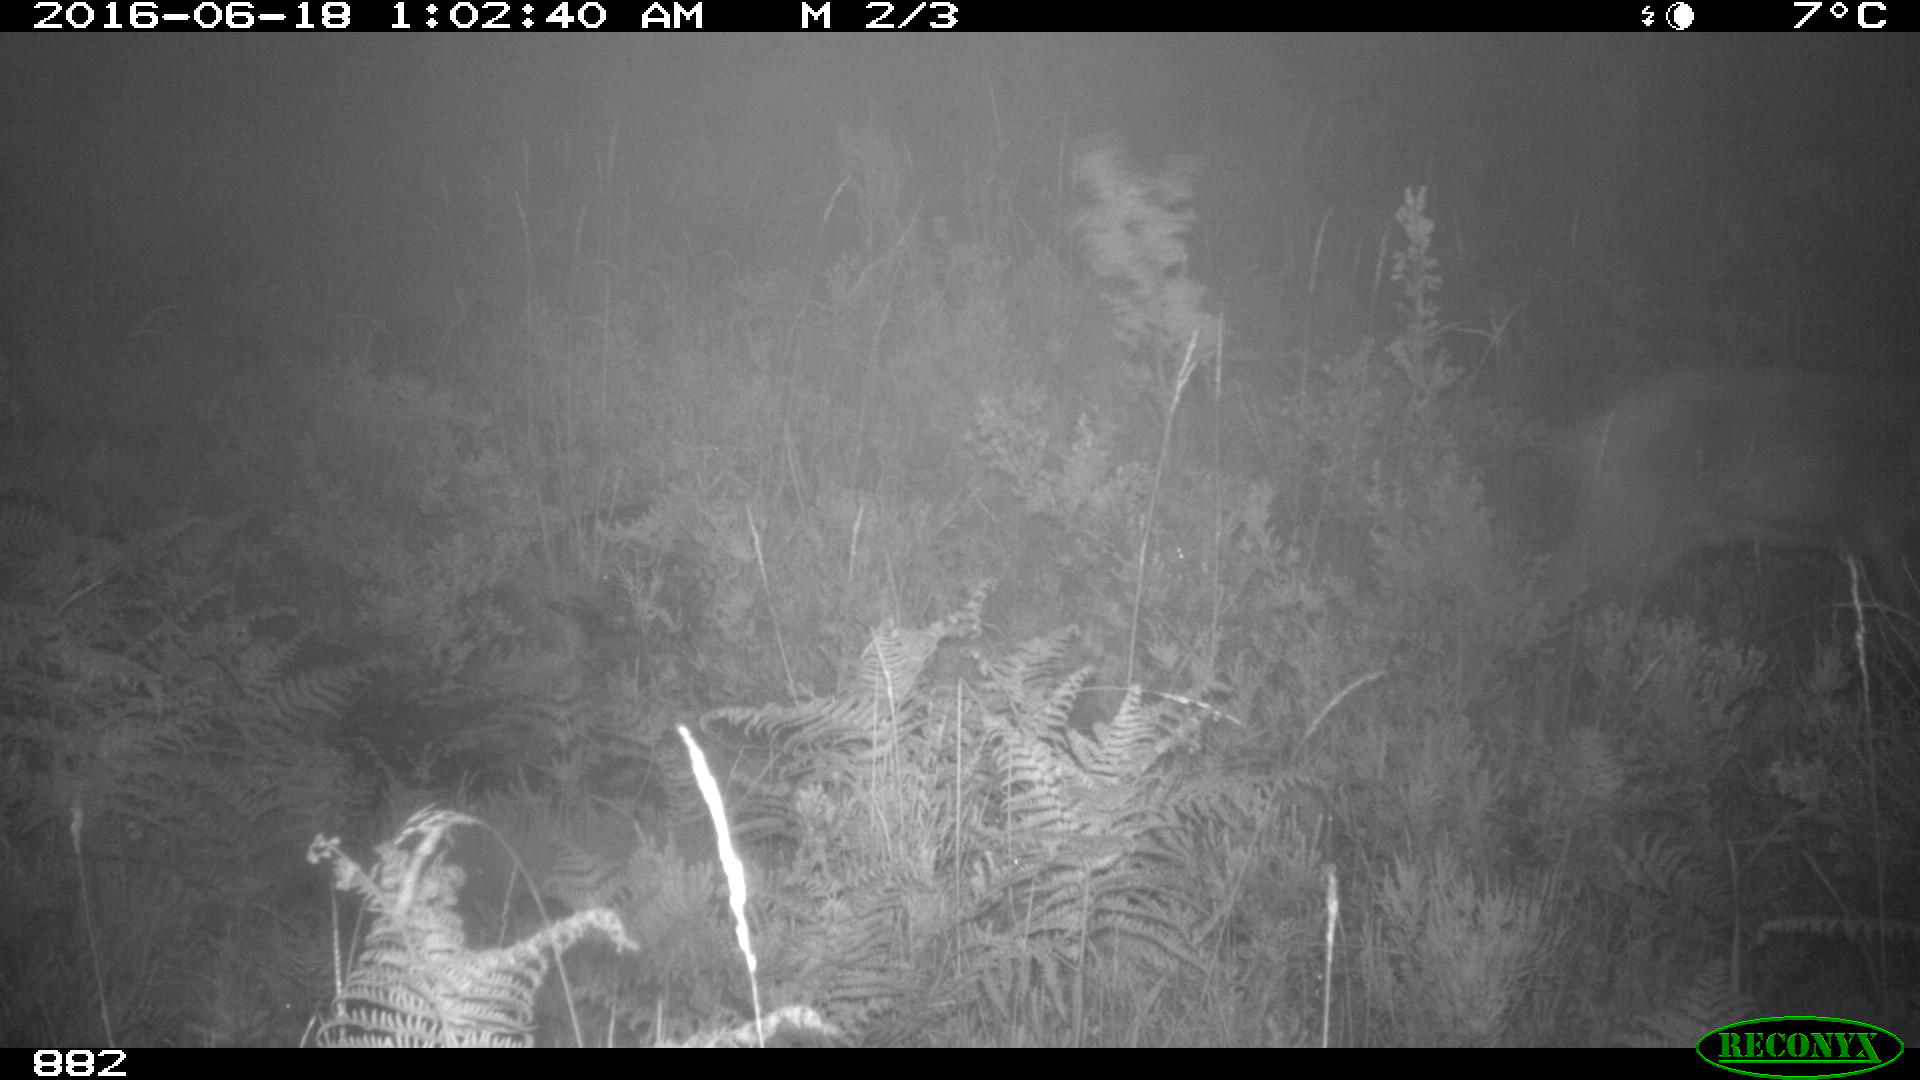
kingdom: Animalia
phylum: Chordata
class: Mammalia
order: Artiodactyla
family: Cervidae
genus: Capreolus
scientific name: Capreolus capreolus
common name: Western roe deer
